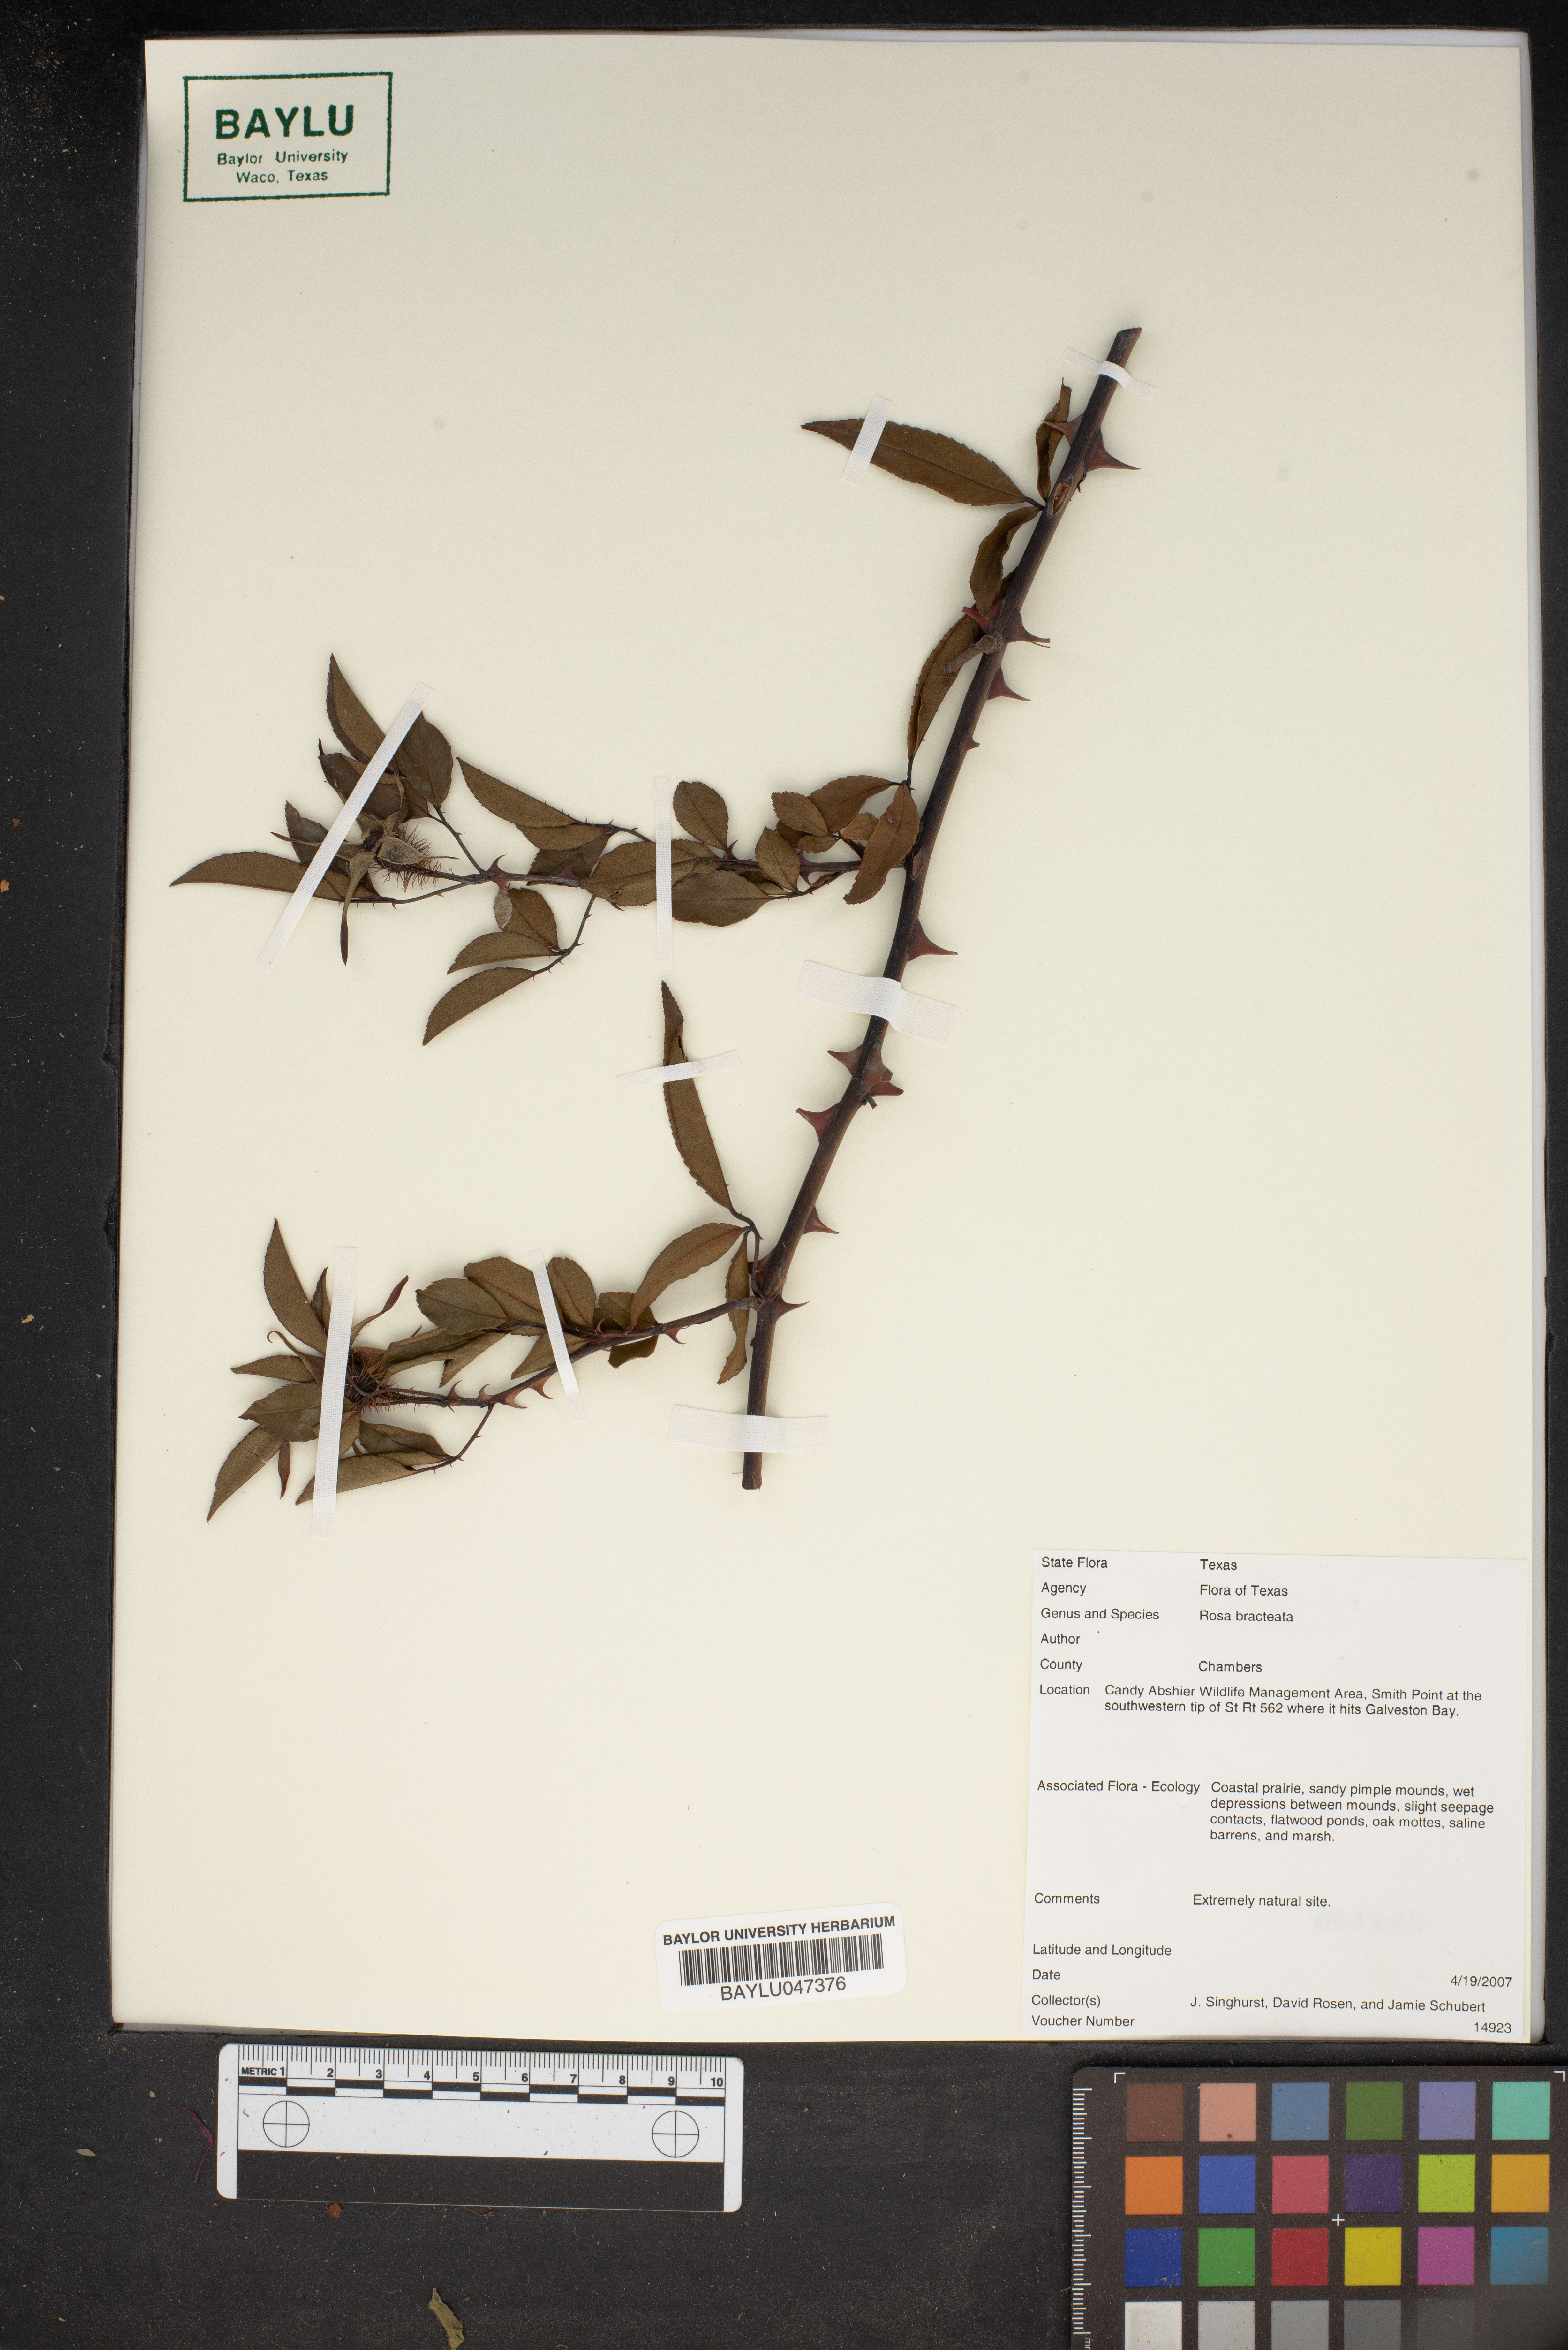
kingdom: Plantae
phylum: Tracheophyta
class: Magnoliopsida
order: Rosales
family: Rosaceae
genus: Rosa
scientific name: Rosa bracteata
